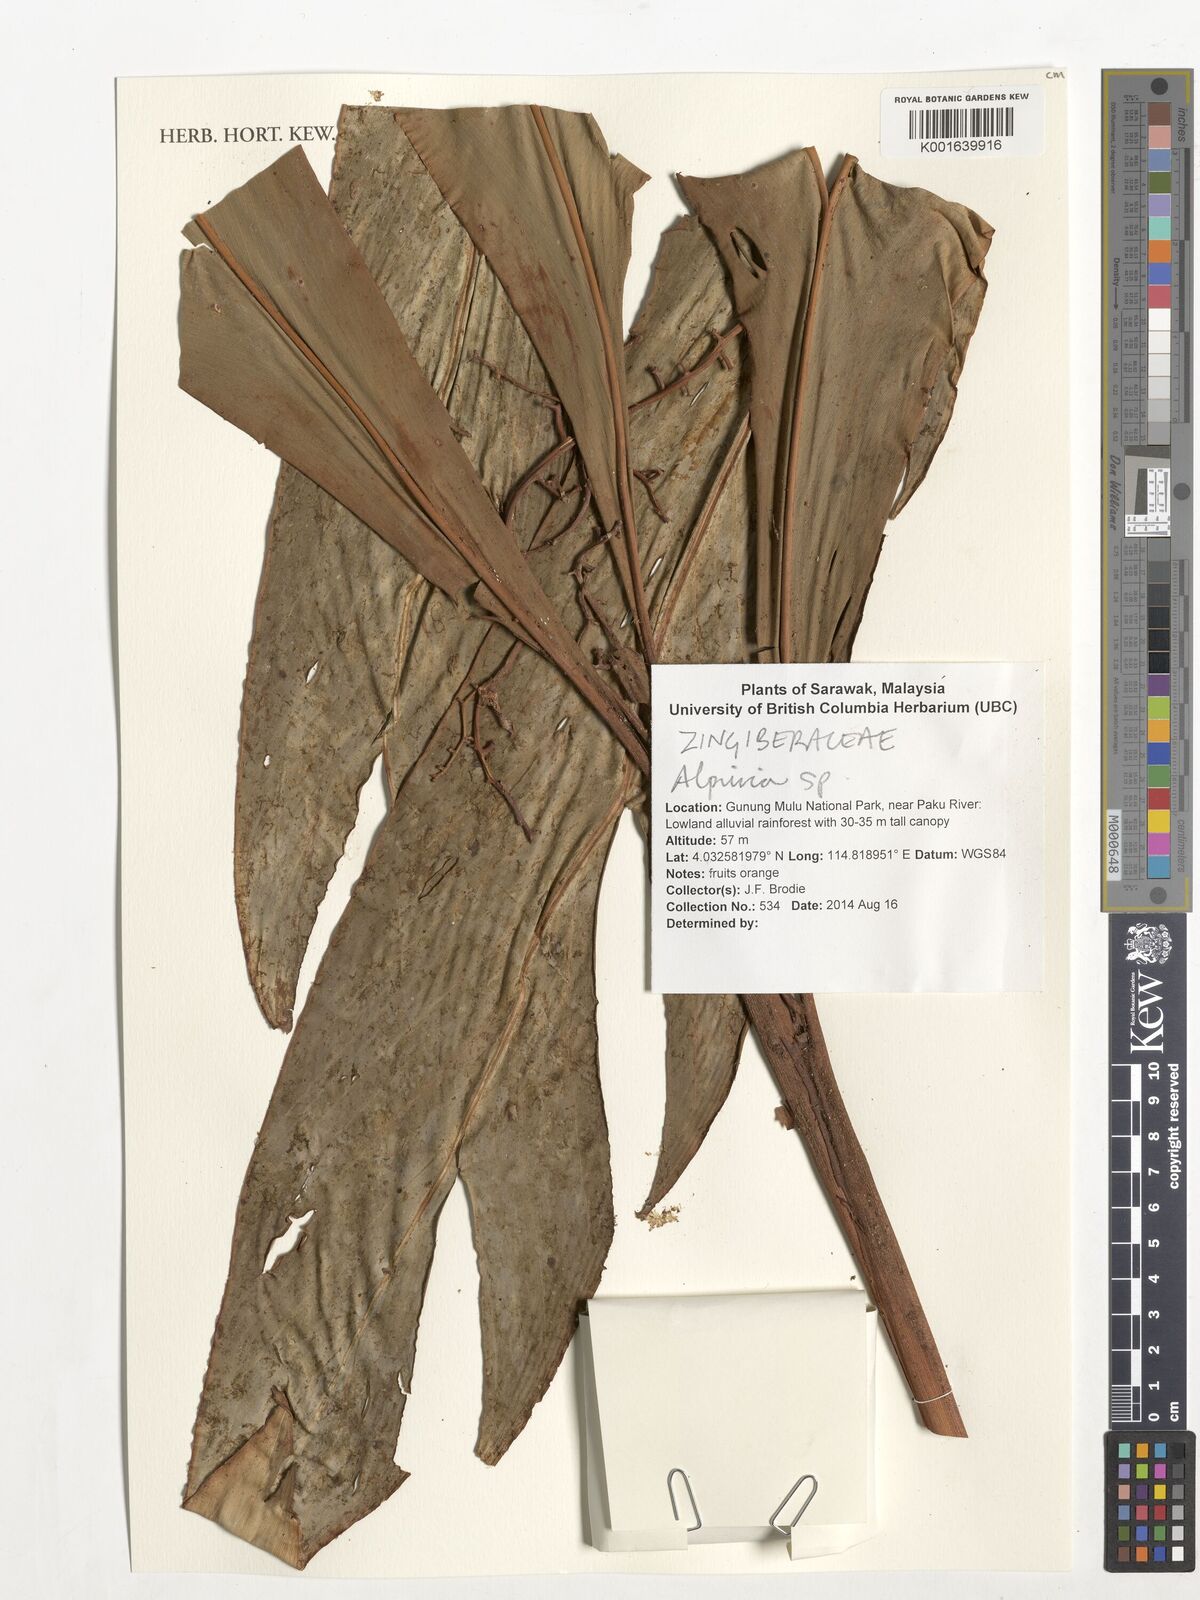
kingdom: Plantae
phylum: Tracheophyta
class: Liliopsida
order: Zingiberales
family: Zingiberaceae
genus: Alpinia
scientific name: Alpinia
